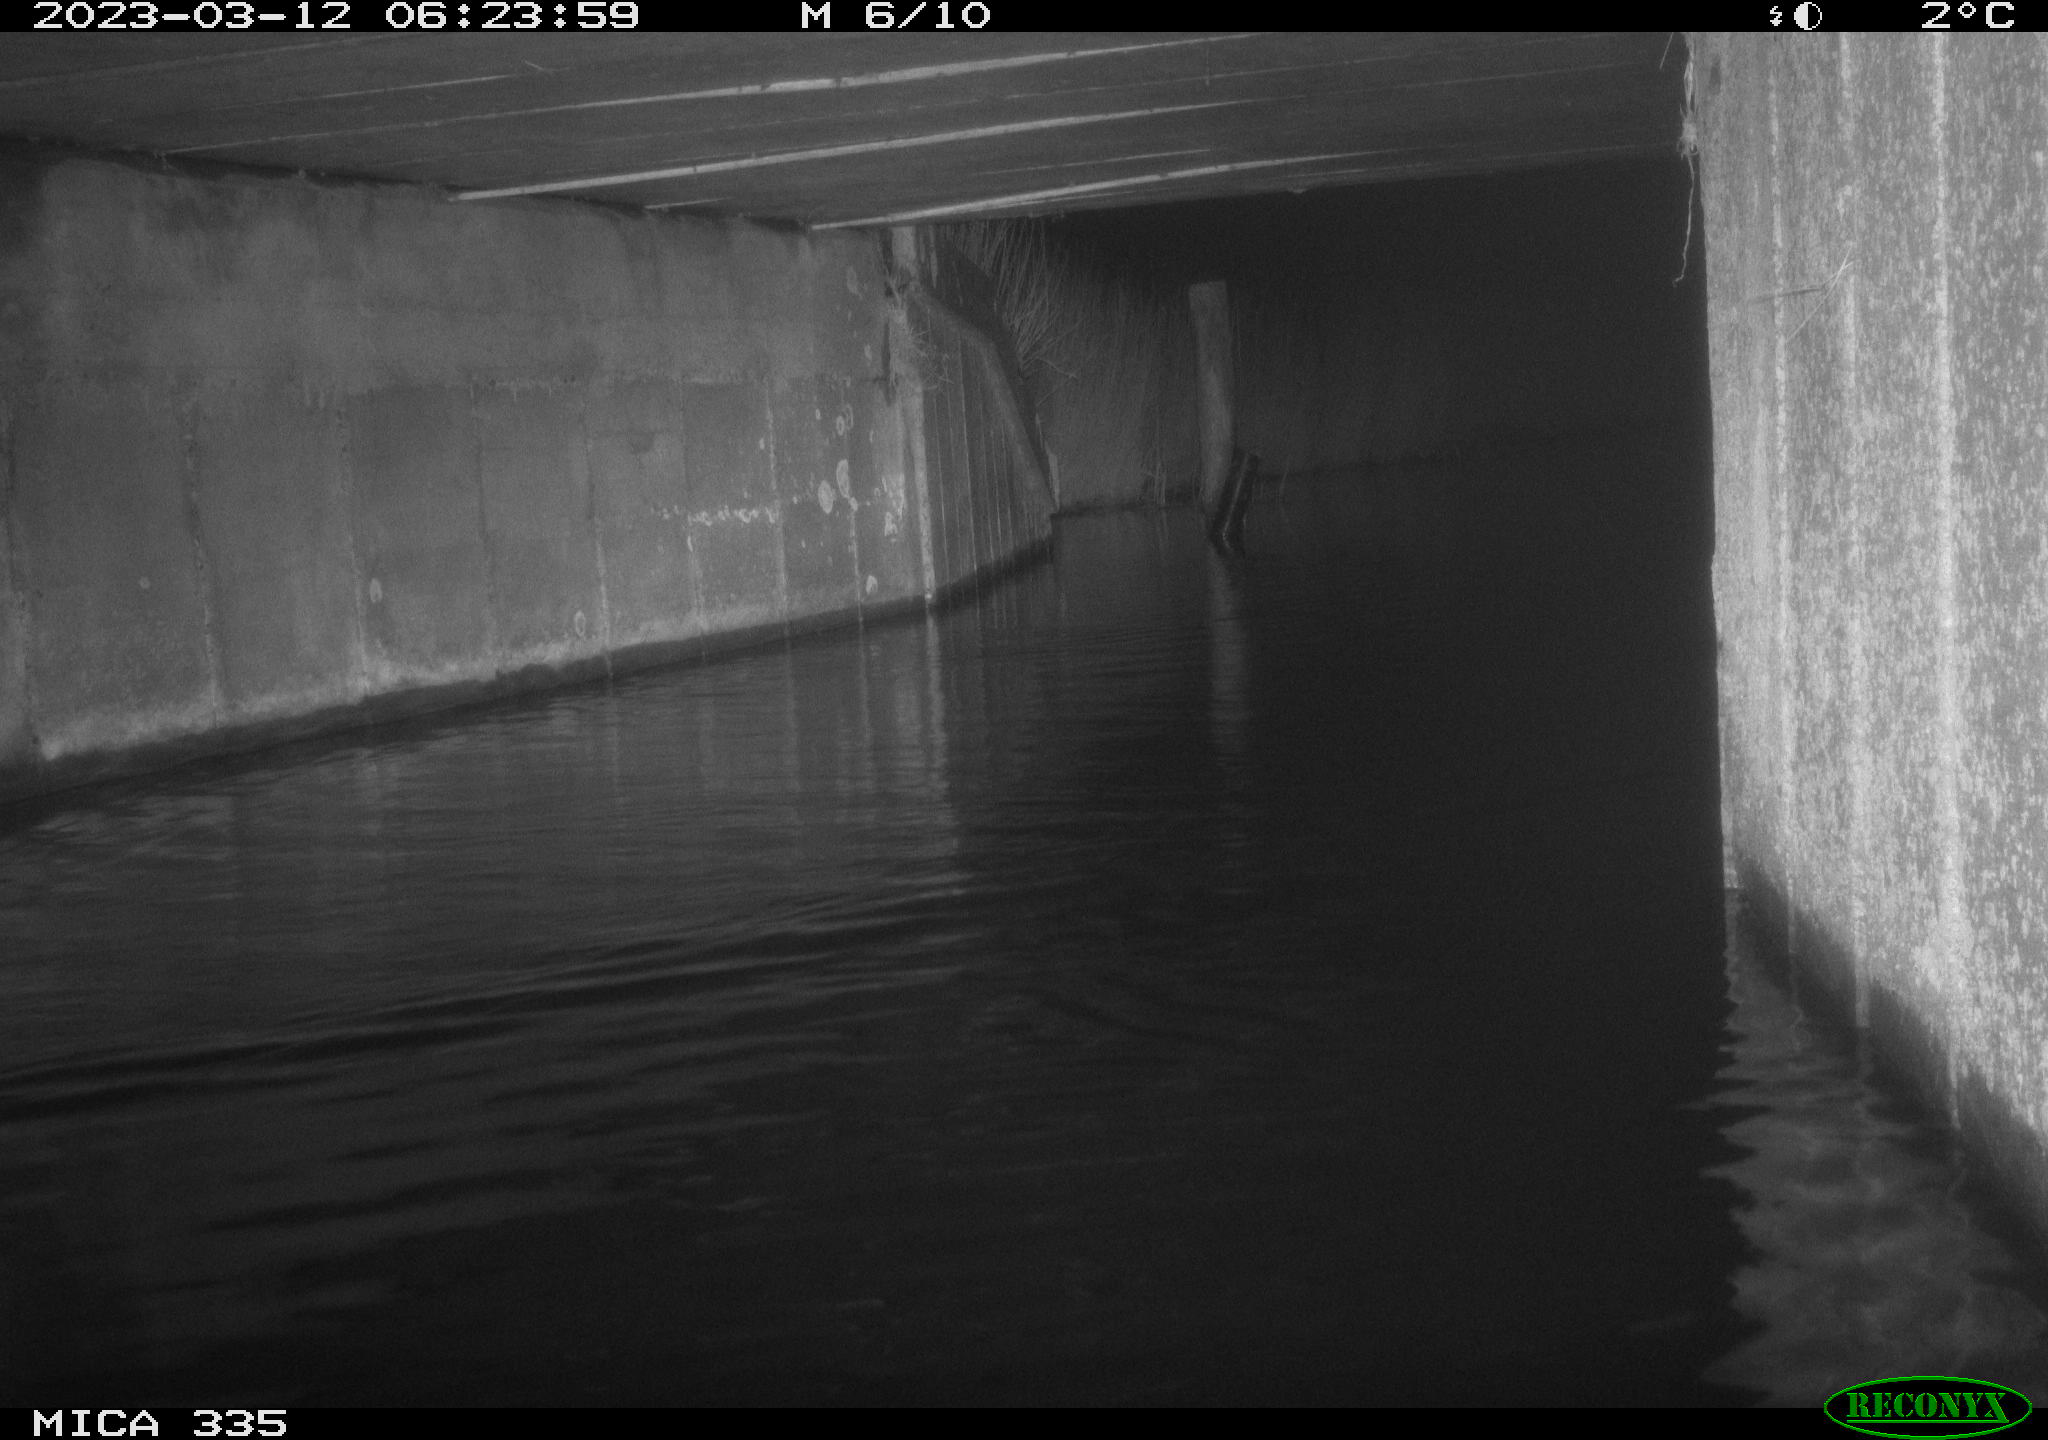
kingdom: Animalia
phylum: Chordata
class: Aves
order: Anseriformes
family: Anatidae
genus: Anas
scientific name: Anas
